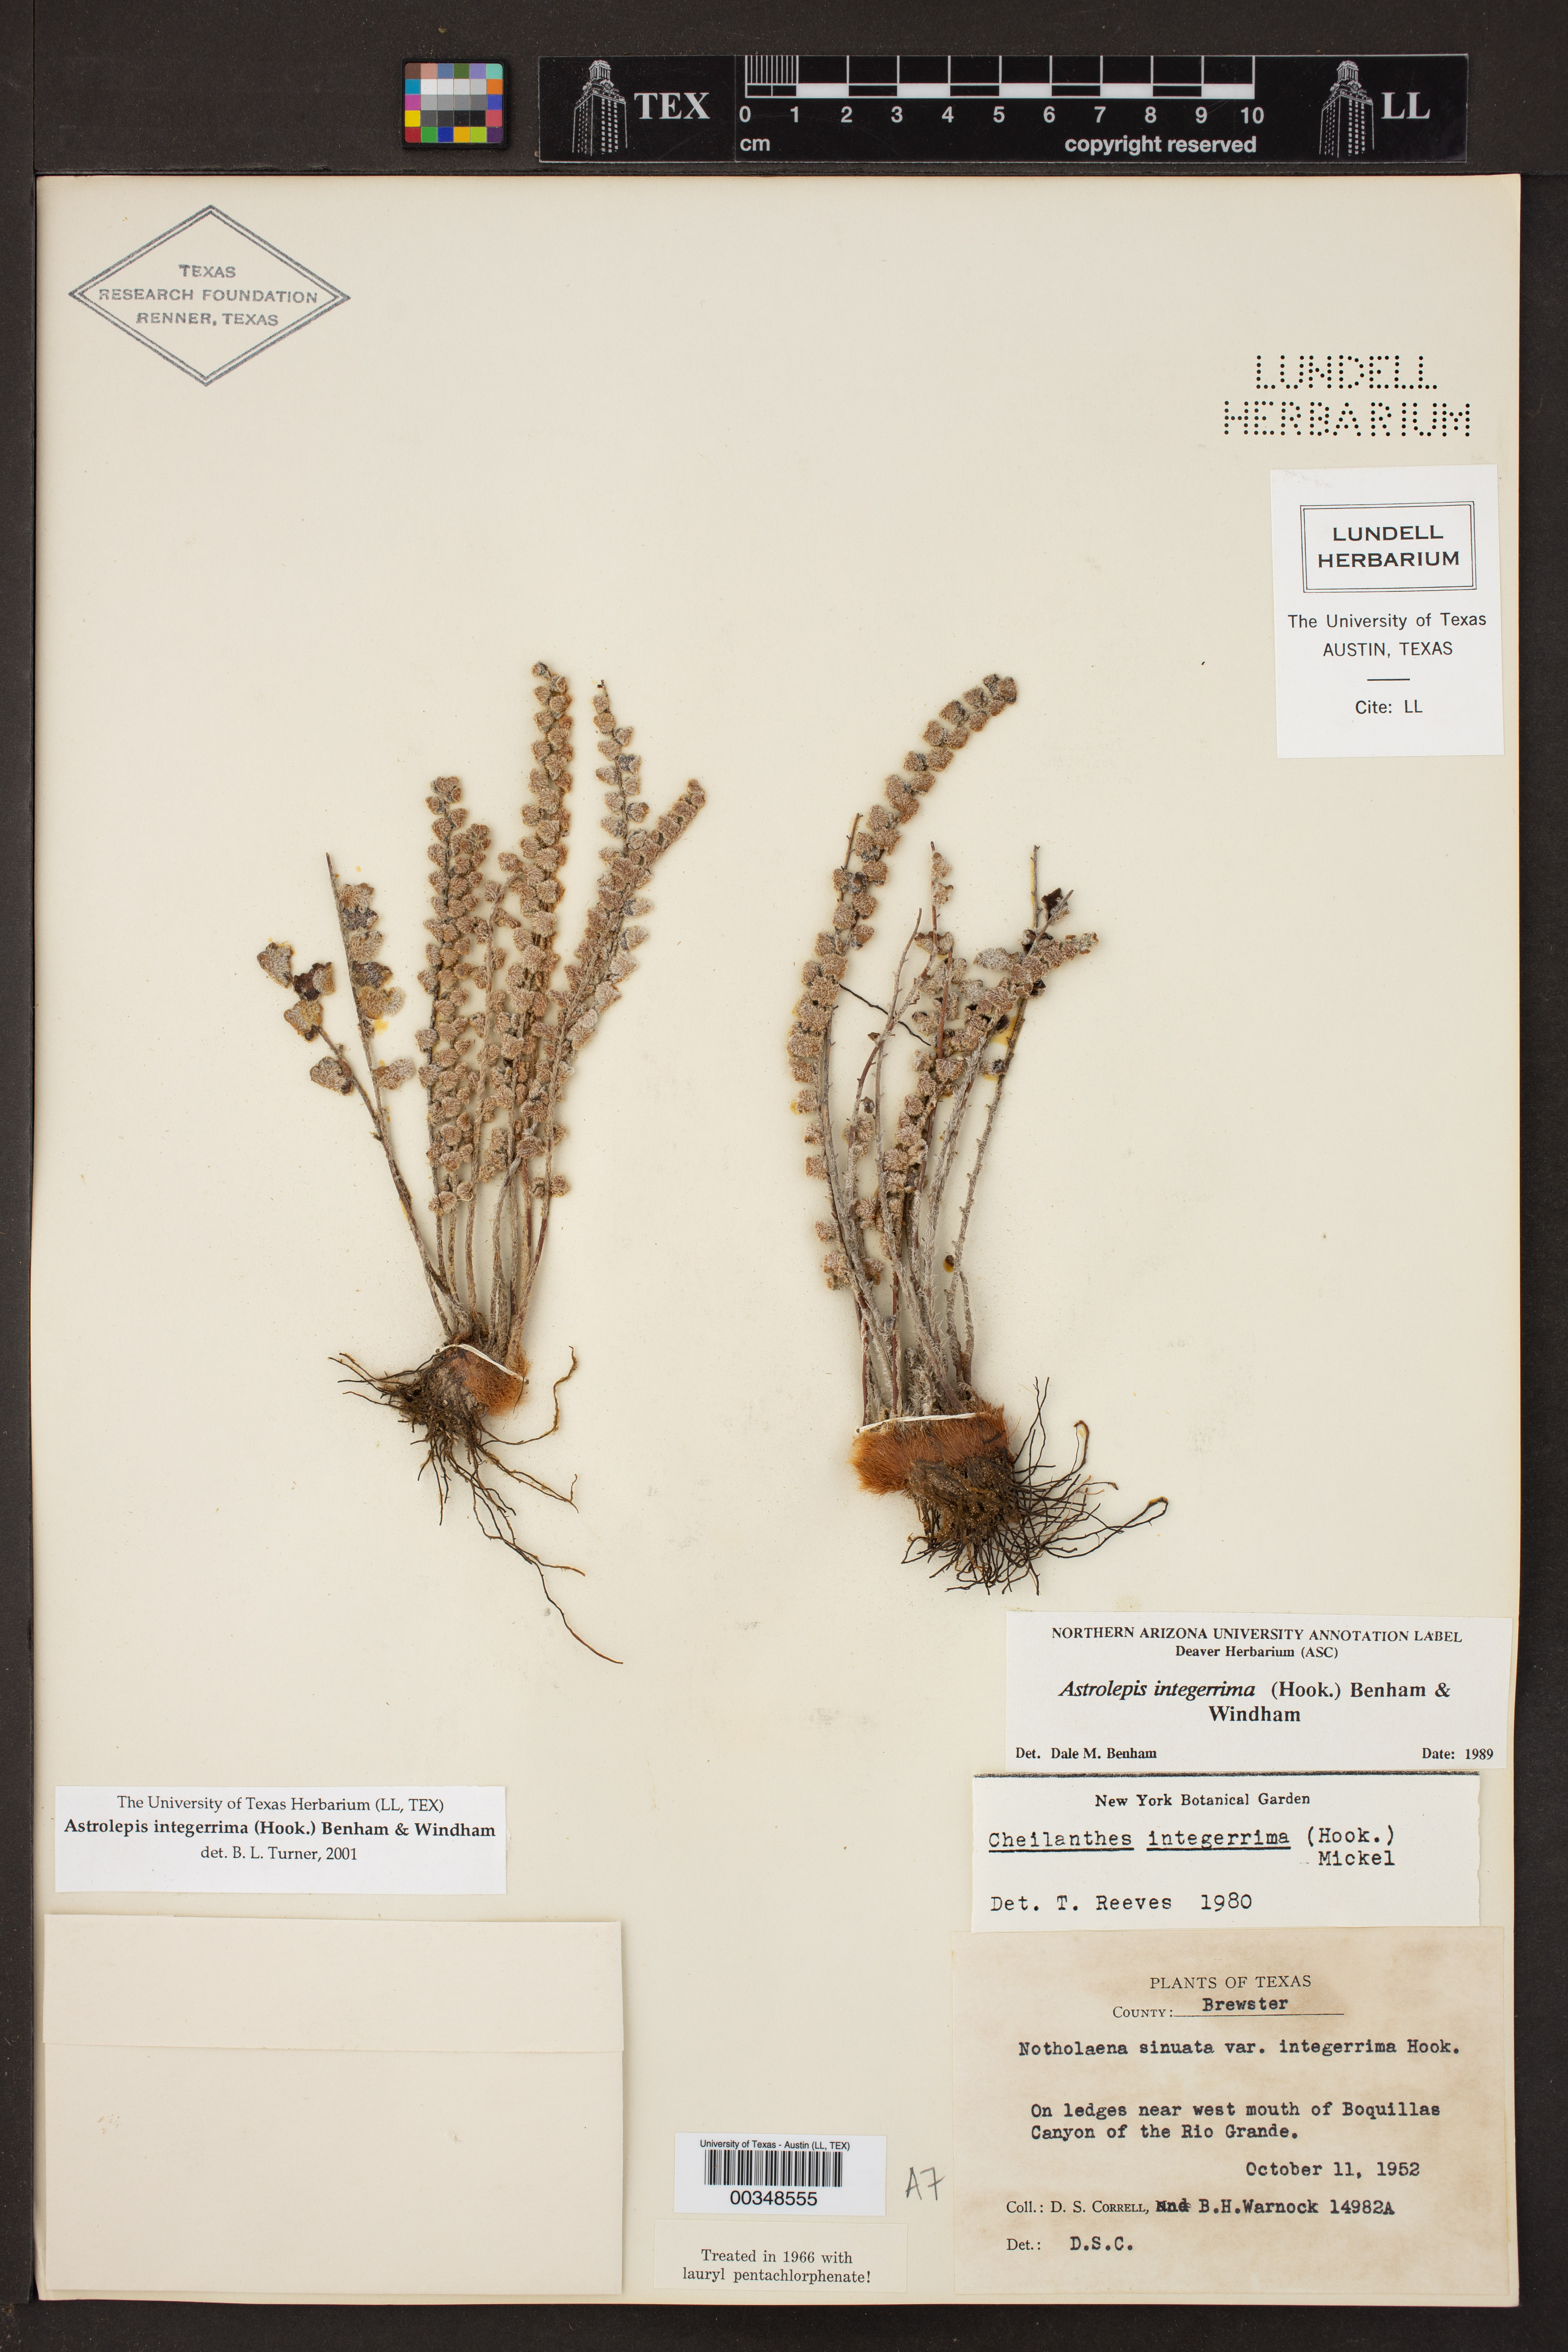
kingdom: Plantae
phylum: Tracheophyta
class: Polypodiopsida
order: Polypodiales
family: Pteridaceae
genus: Astrolepis
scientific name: Astrolepis integerrima
